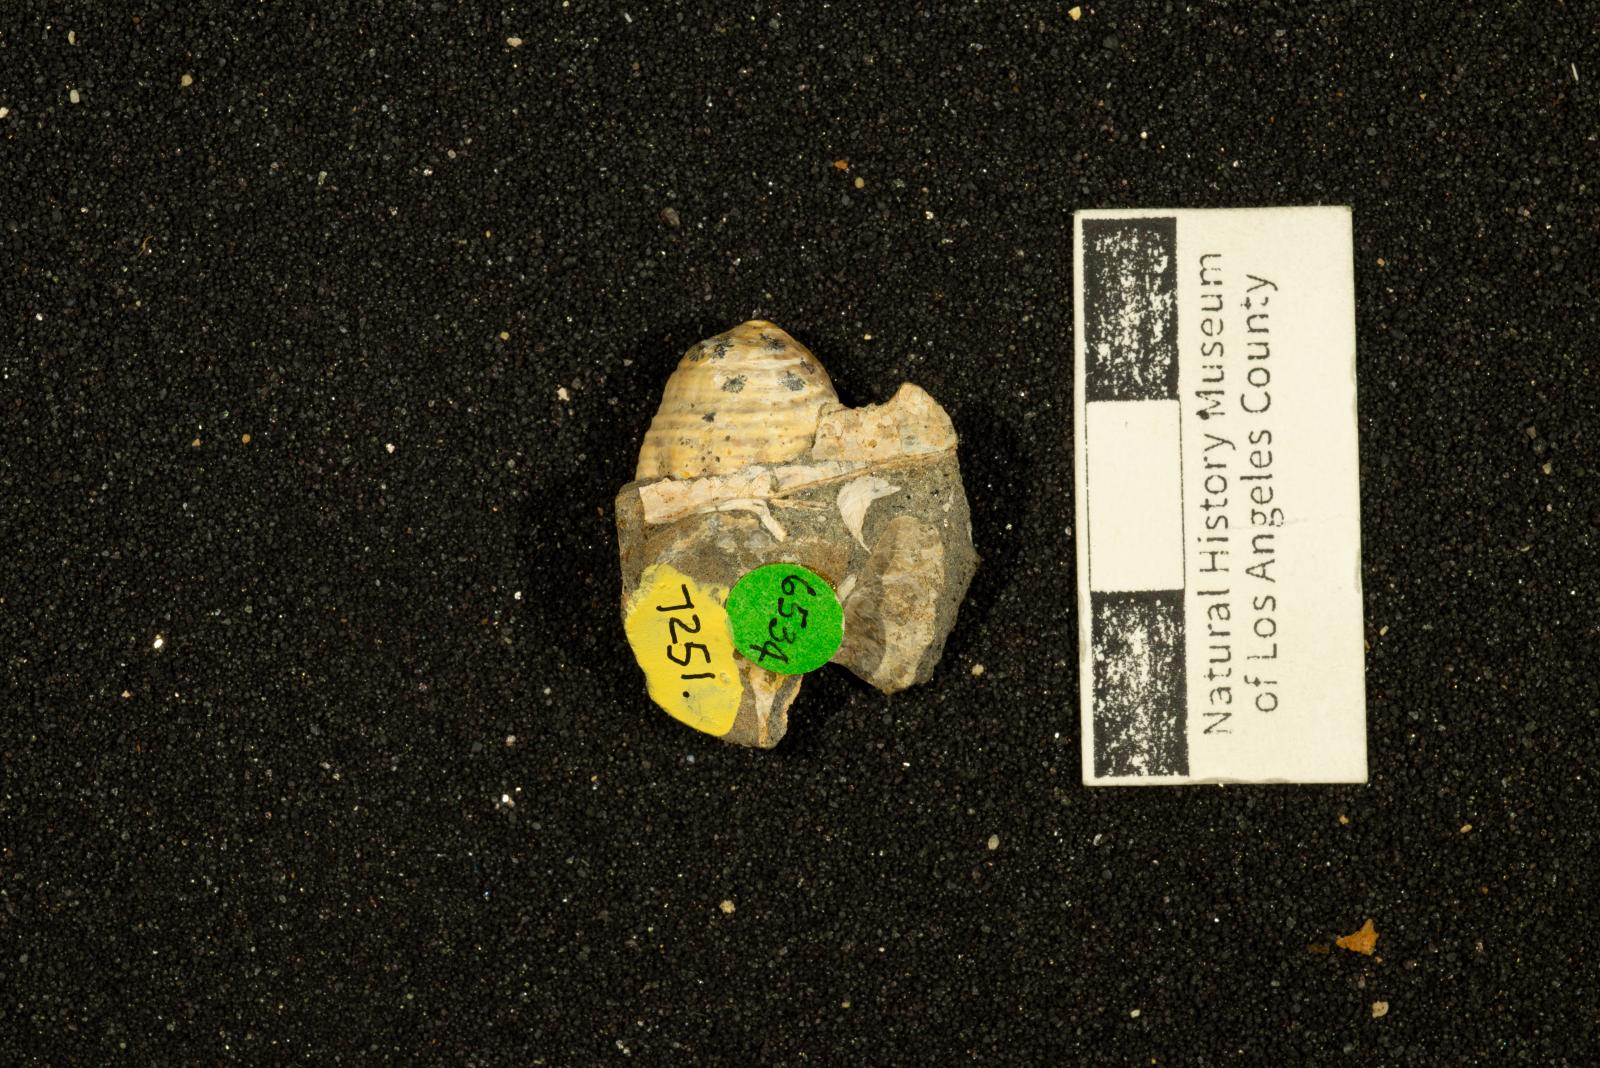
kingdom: Animalia
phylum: Mollusca
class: Gastropoda
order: Neogastropoda
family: Perissityidae
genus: Perissitys
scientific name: Perissitys colocara
